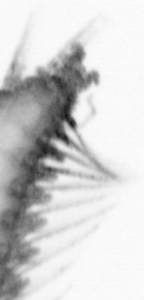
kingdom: Animalia
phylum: Annelida
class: Polychaeta
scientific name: Polychaeta
